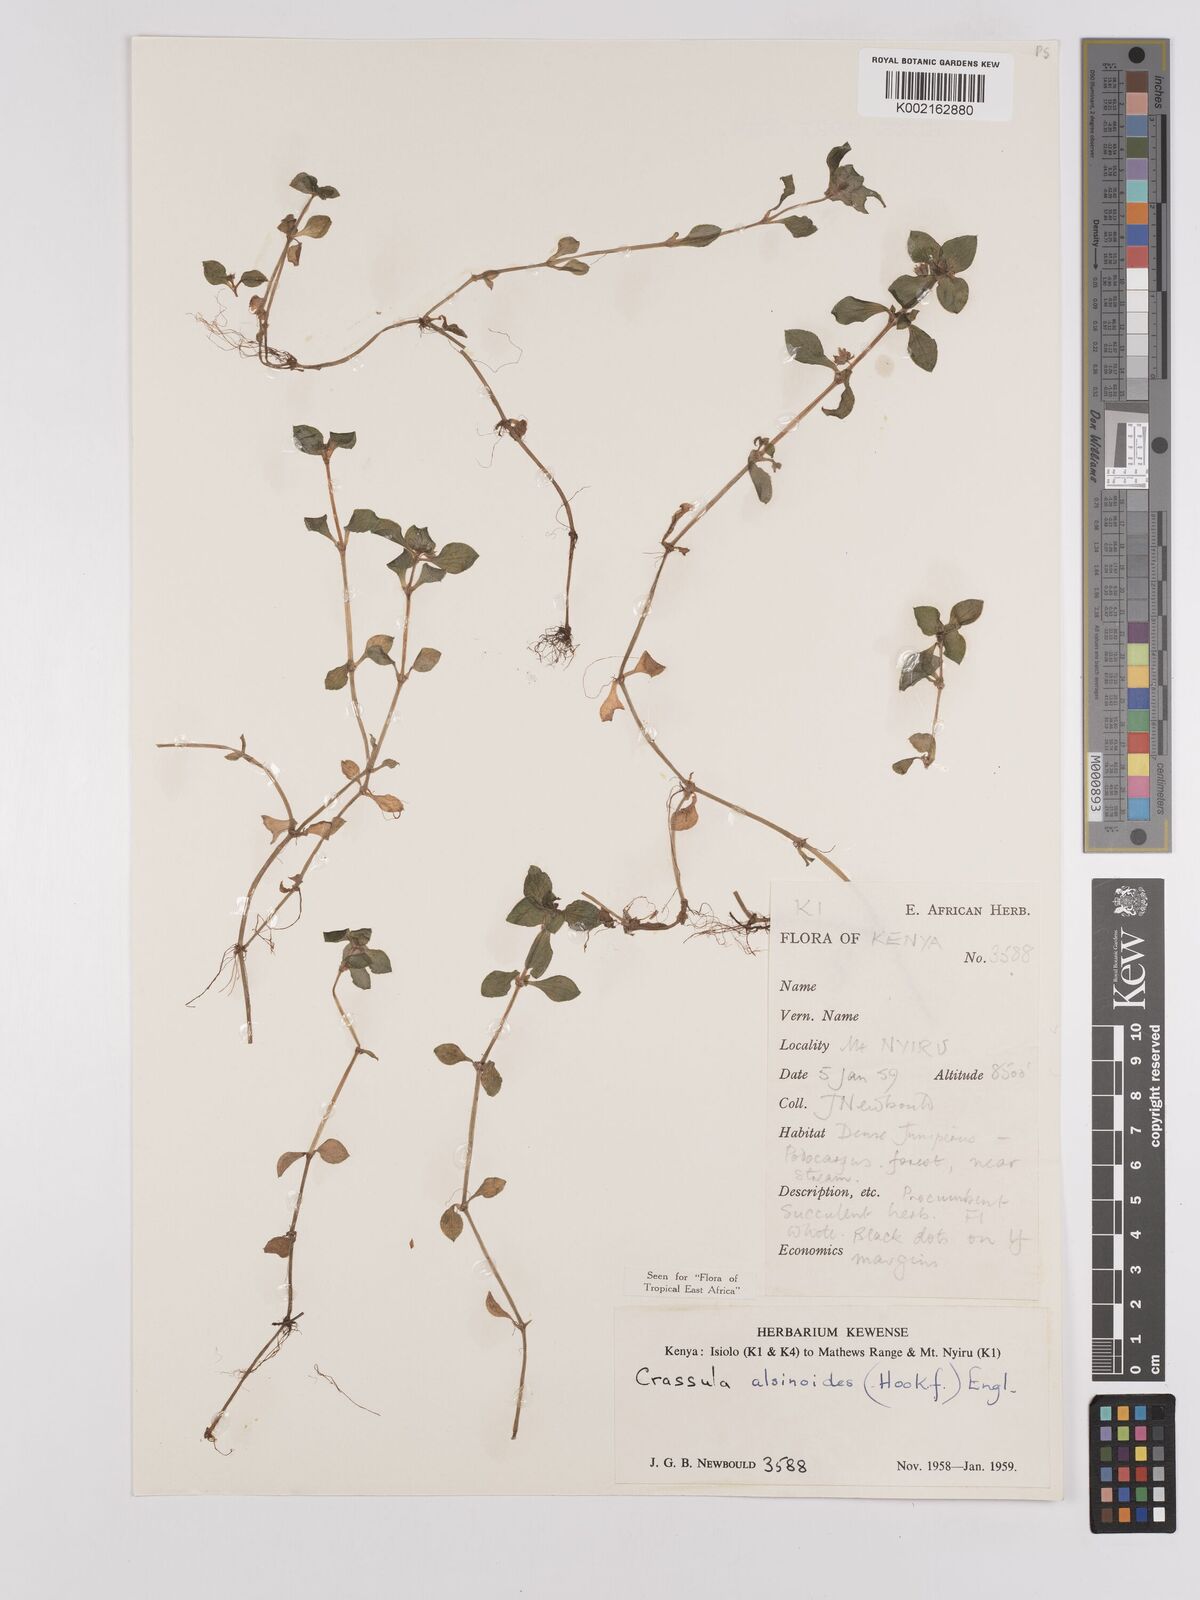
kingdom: Plantae
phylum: Tracheophyta
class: Magnoliopsida
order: Saxifragales
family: Crassulaceae
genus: Crassula
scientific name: Crassula alsinoides
